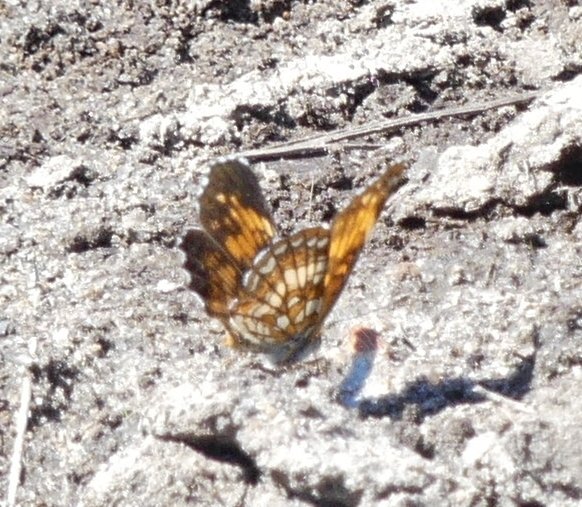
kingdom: Animalia
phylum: Arthropoda
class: Insecta
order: Lepidoptera
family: Nymphalidae
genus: Chlosyne
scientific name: Chlosyne harrisii
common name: Harris's Checkerspot
